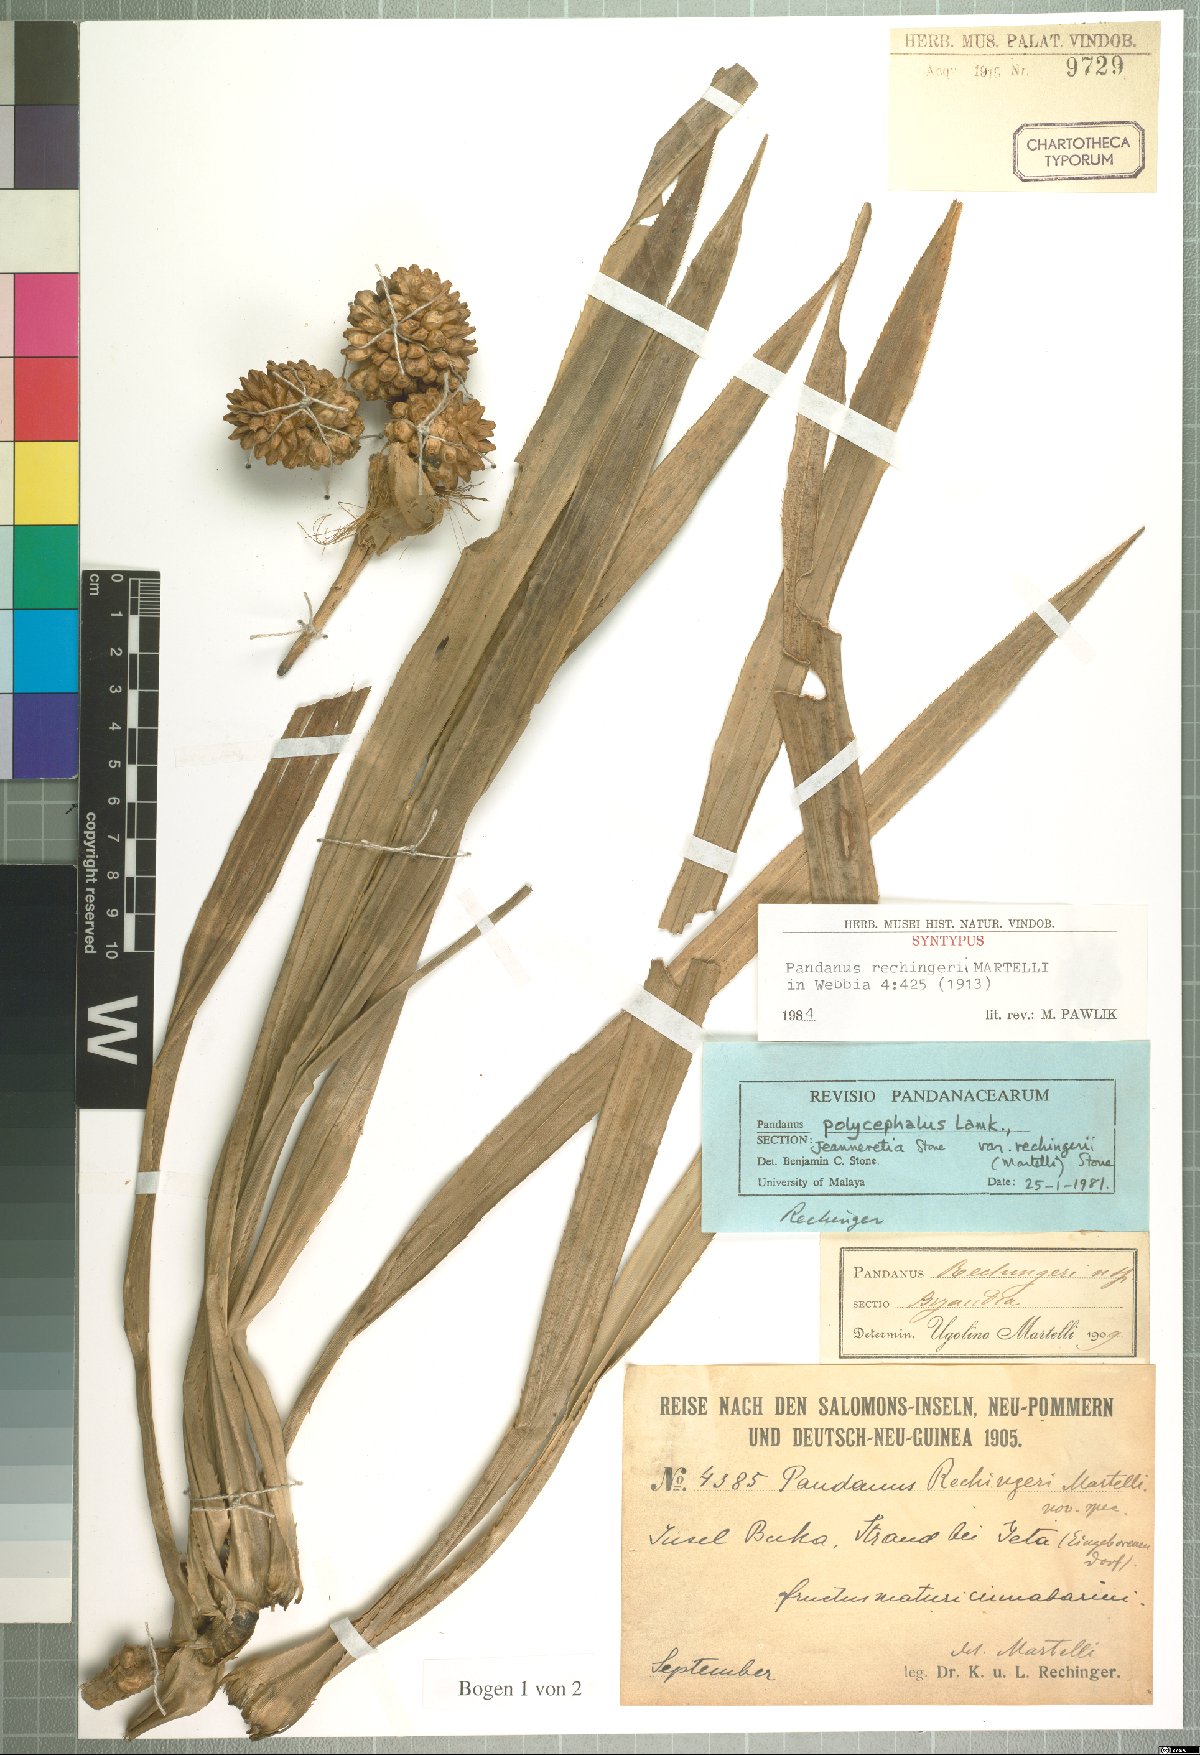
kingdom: Plantae
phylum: Tracheophyta
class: Liliopsida
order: Pandanales
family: Pandanaceae
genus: Pandanus
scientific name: Pandanus polycephalus
